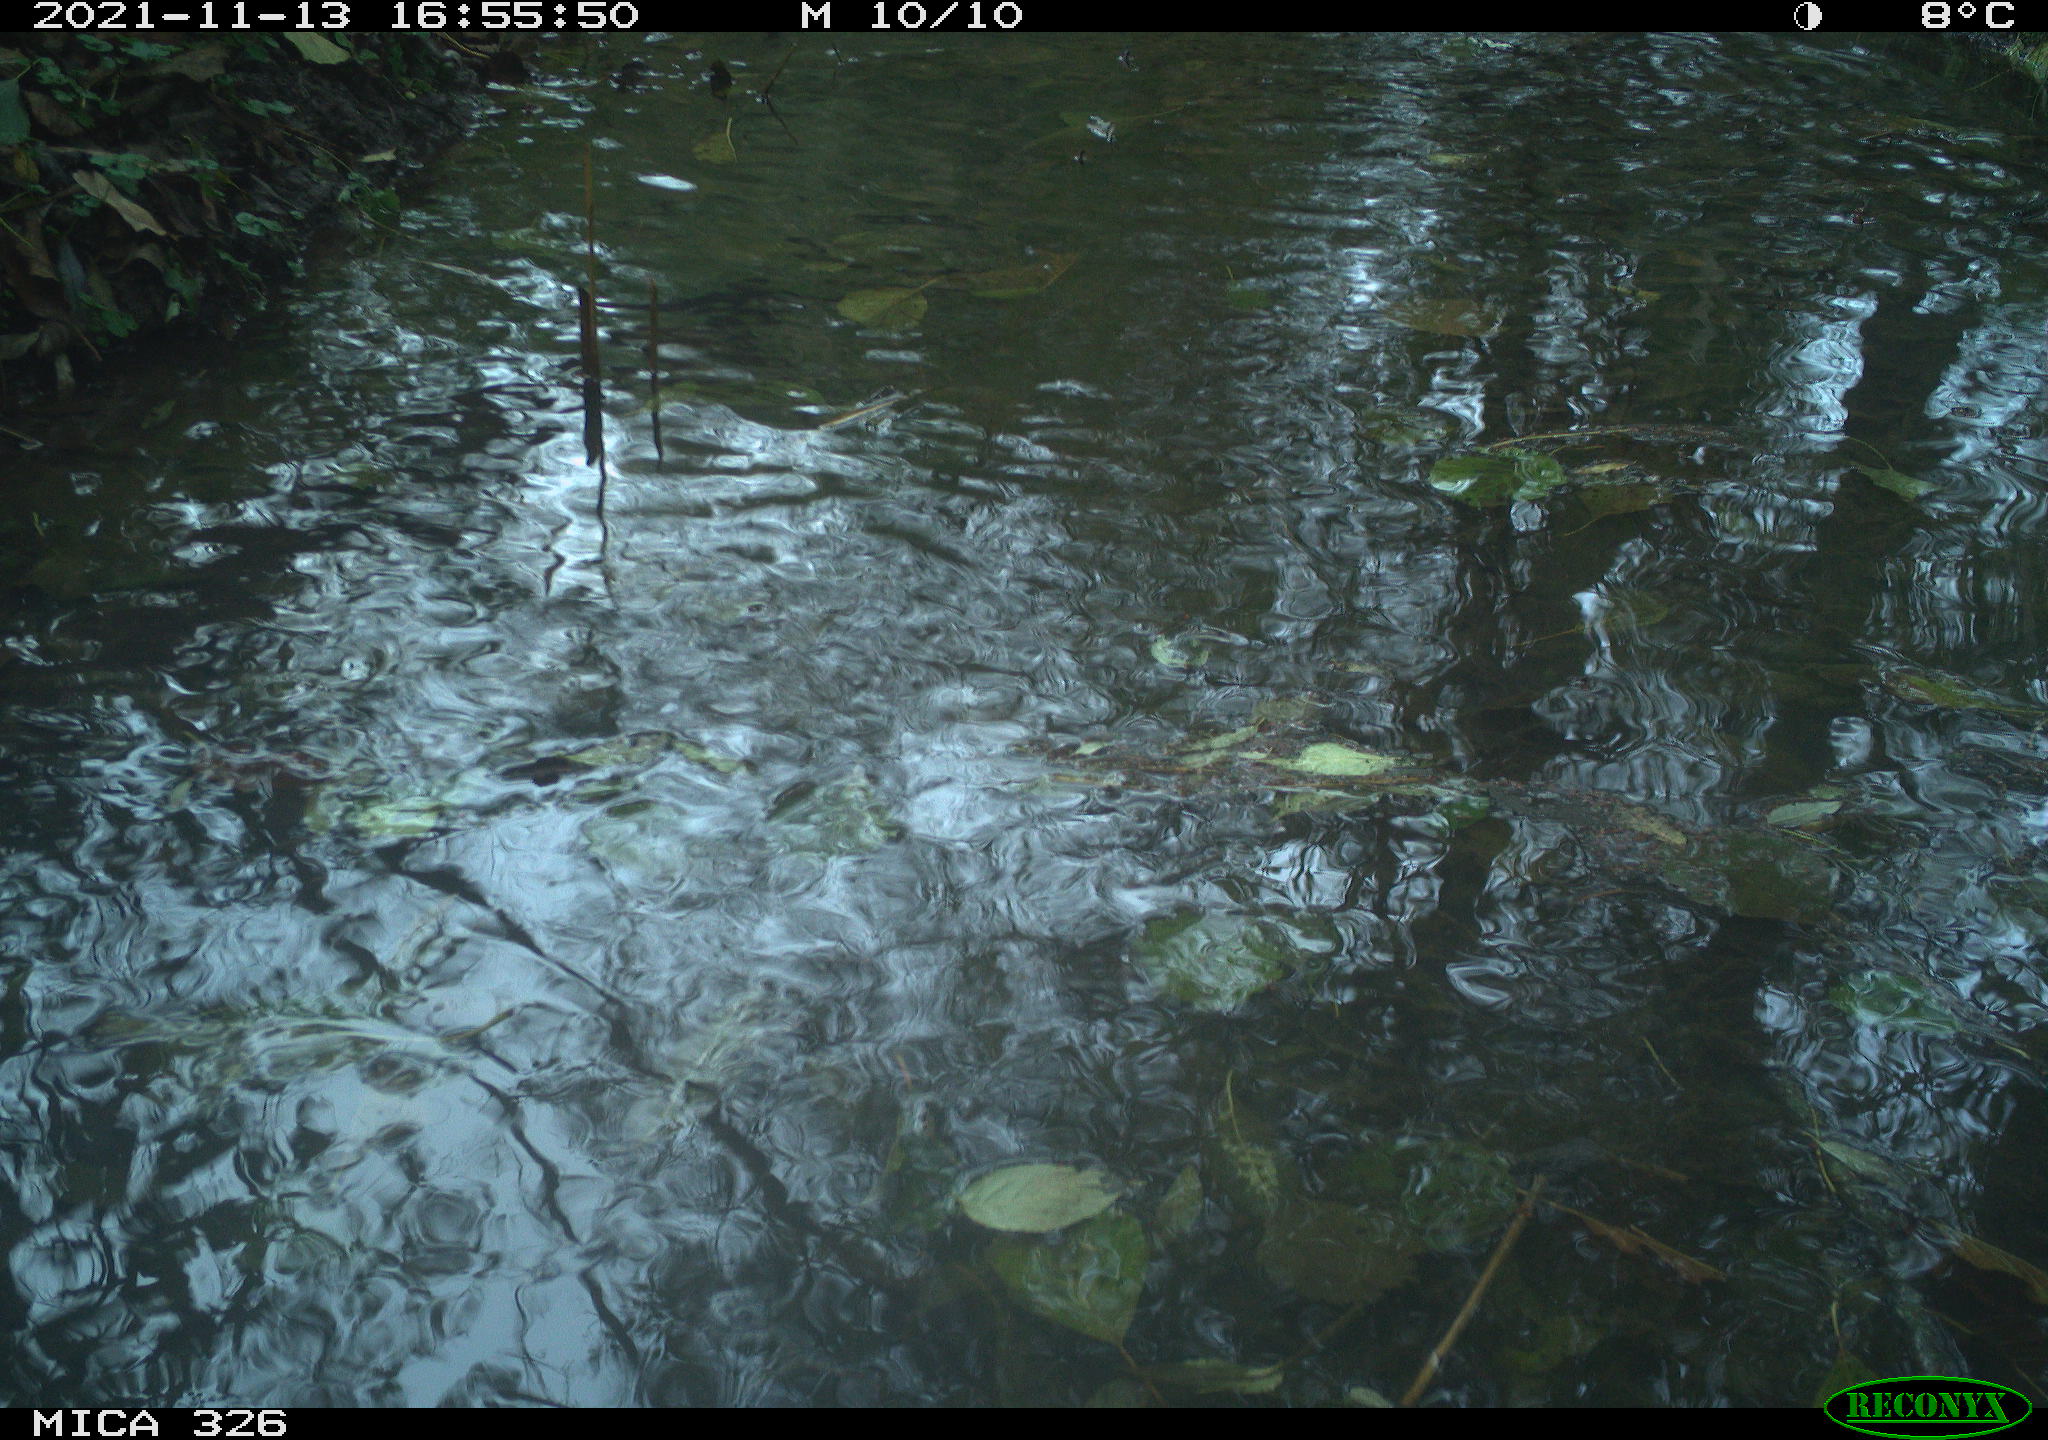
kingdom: Animalia
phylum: Chordata
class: Mammalia
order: Rodentia
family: Cricetidae
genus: Ondatra
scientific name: Ondatra zibethicus
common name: Muskrat
